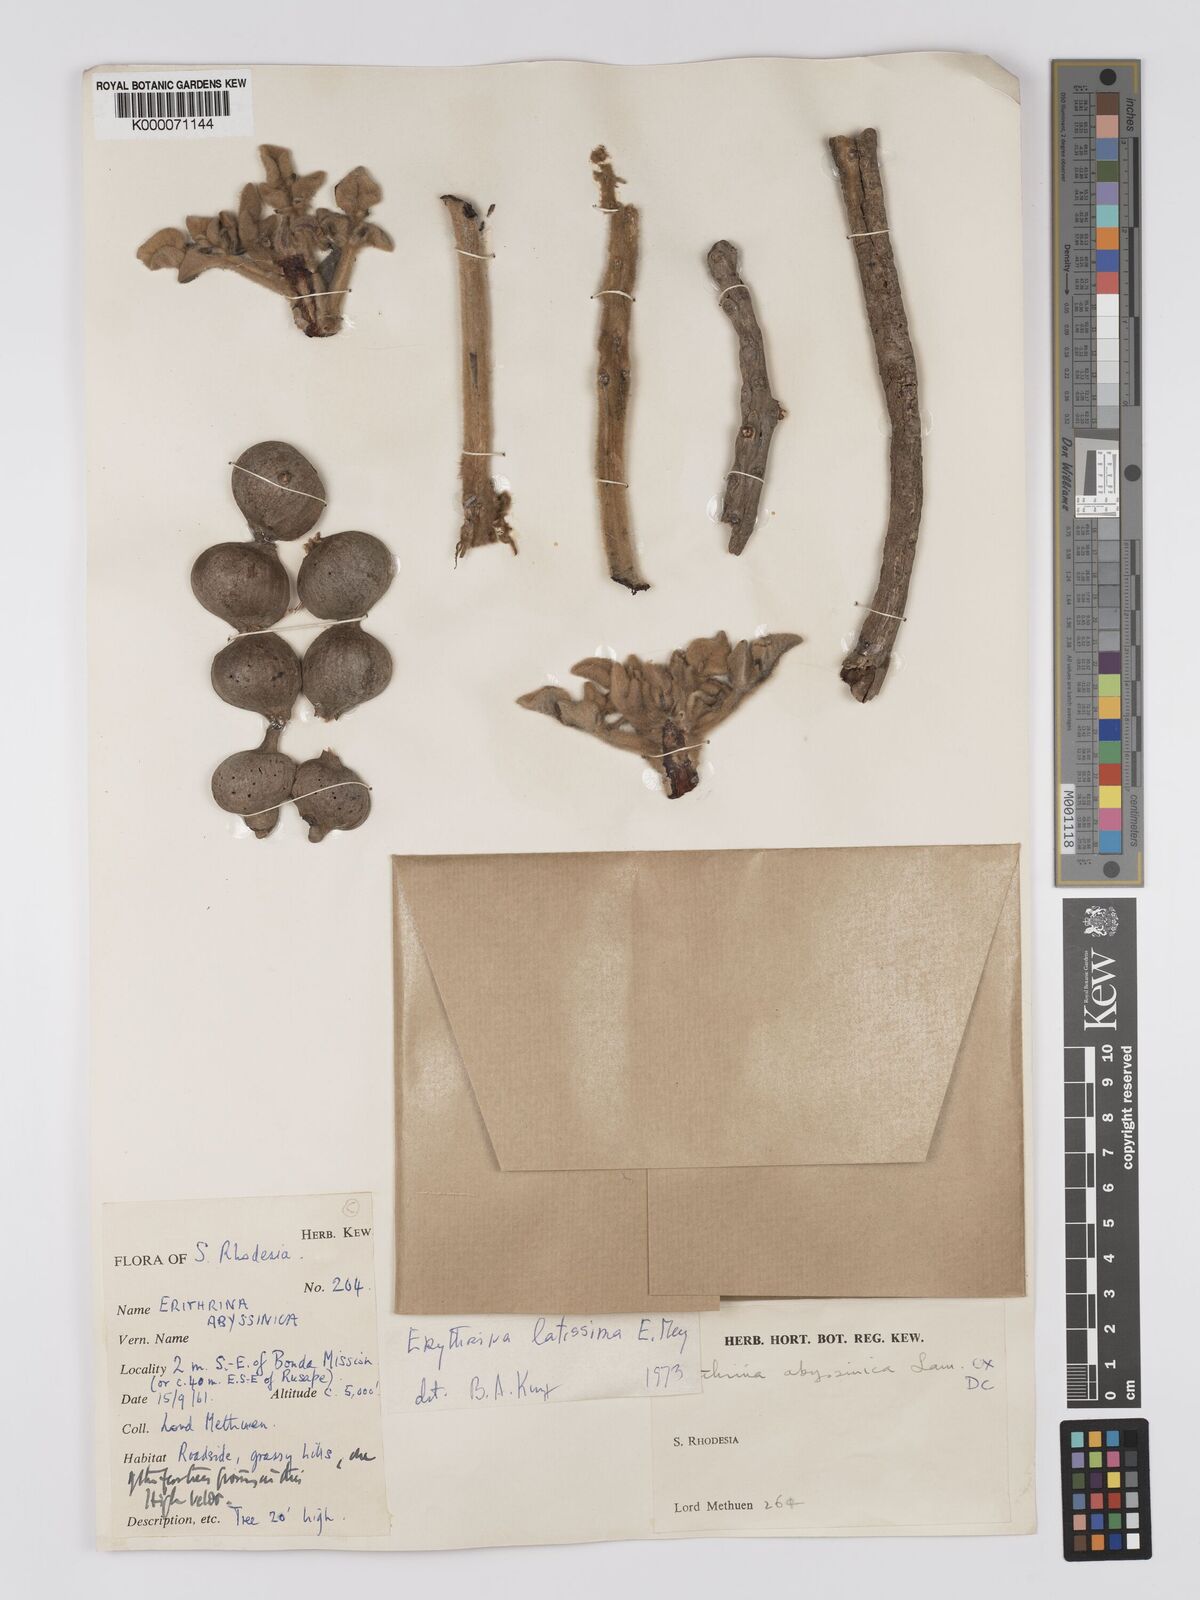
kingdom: Plantae
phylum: Tracheophyta
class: Magnoliopsida
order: Fabales
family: Fabaceae
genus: Erythrina
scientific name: Erythrina latissima
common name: Broad-leaved coral tree
